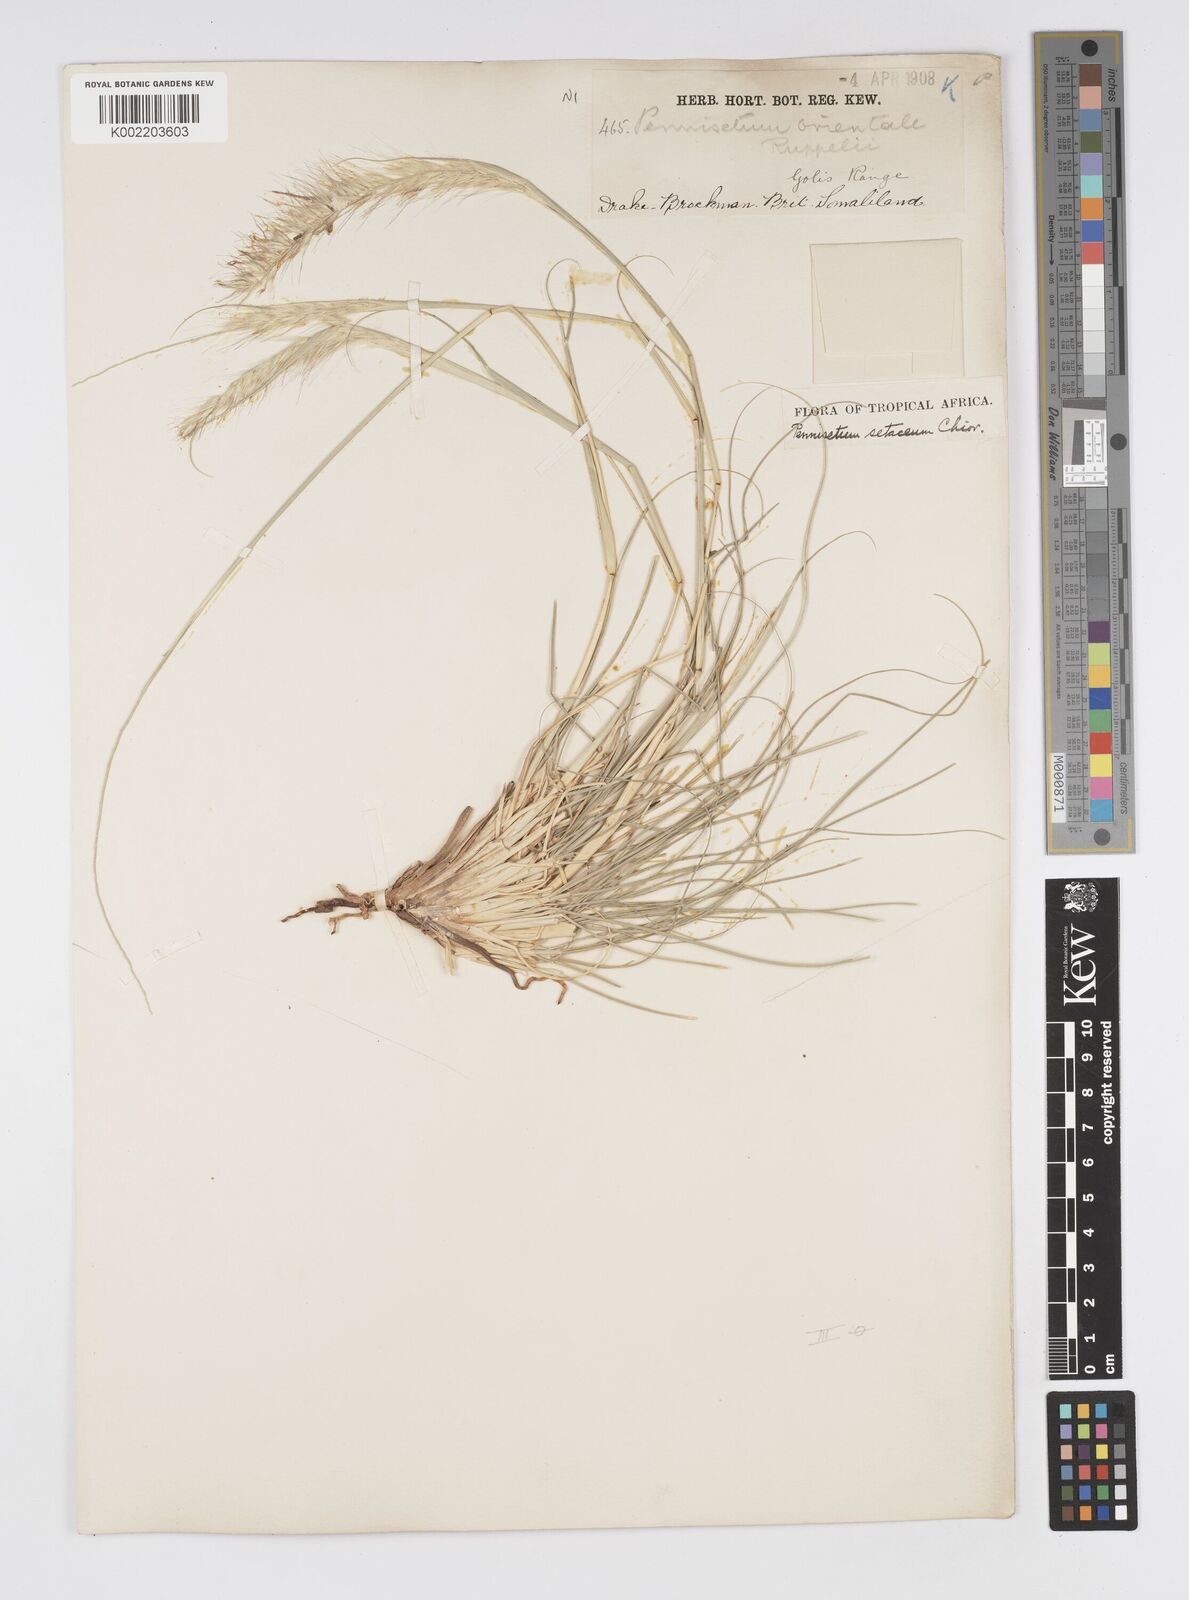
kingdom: Plantae
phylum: Tracheophyta
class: Liliopsida
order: Poales
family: Poaceae
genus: Cenchrus
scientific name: Cenchrus setaceus
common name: Crimson fountaingrass
